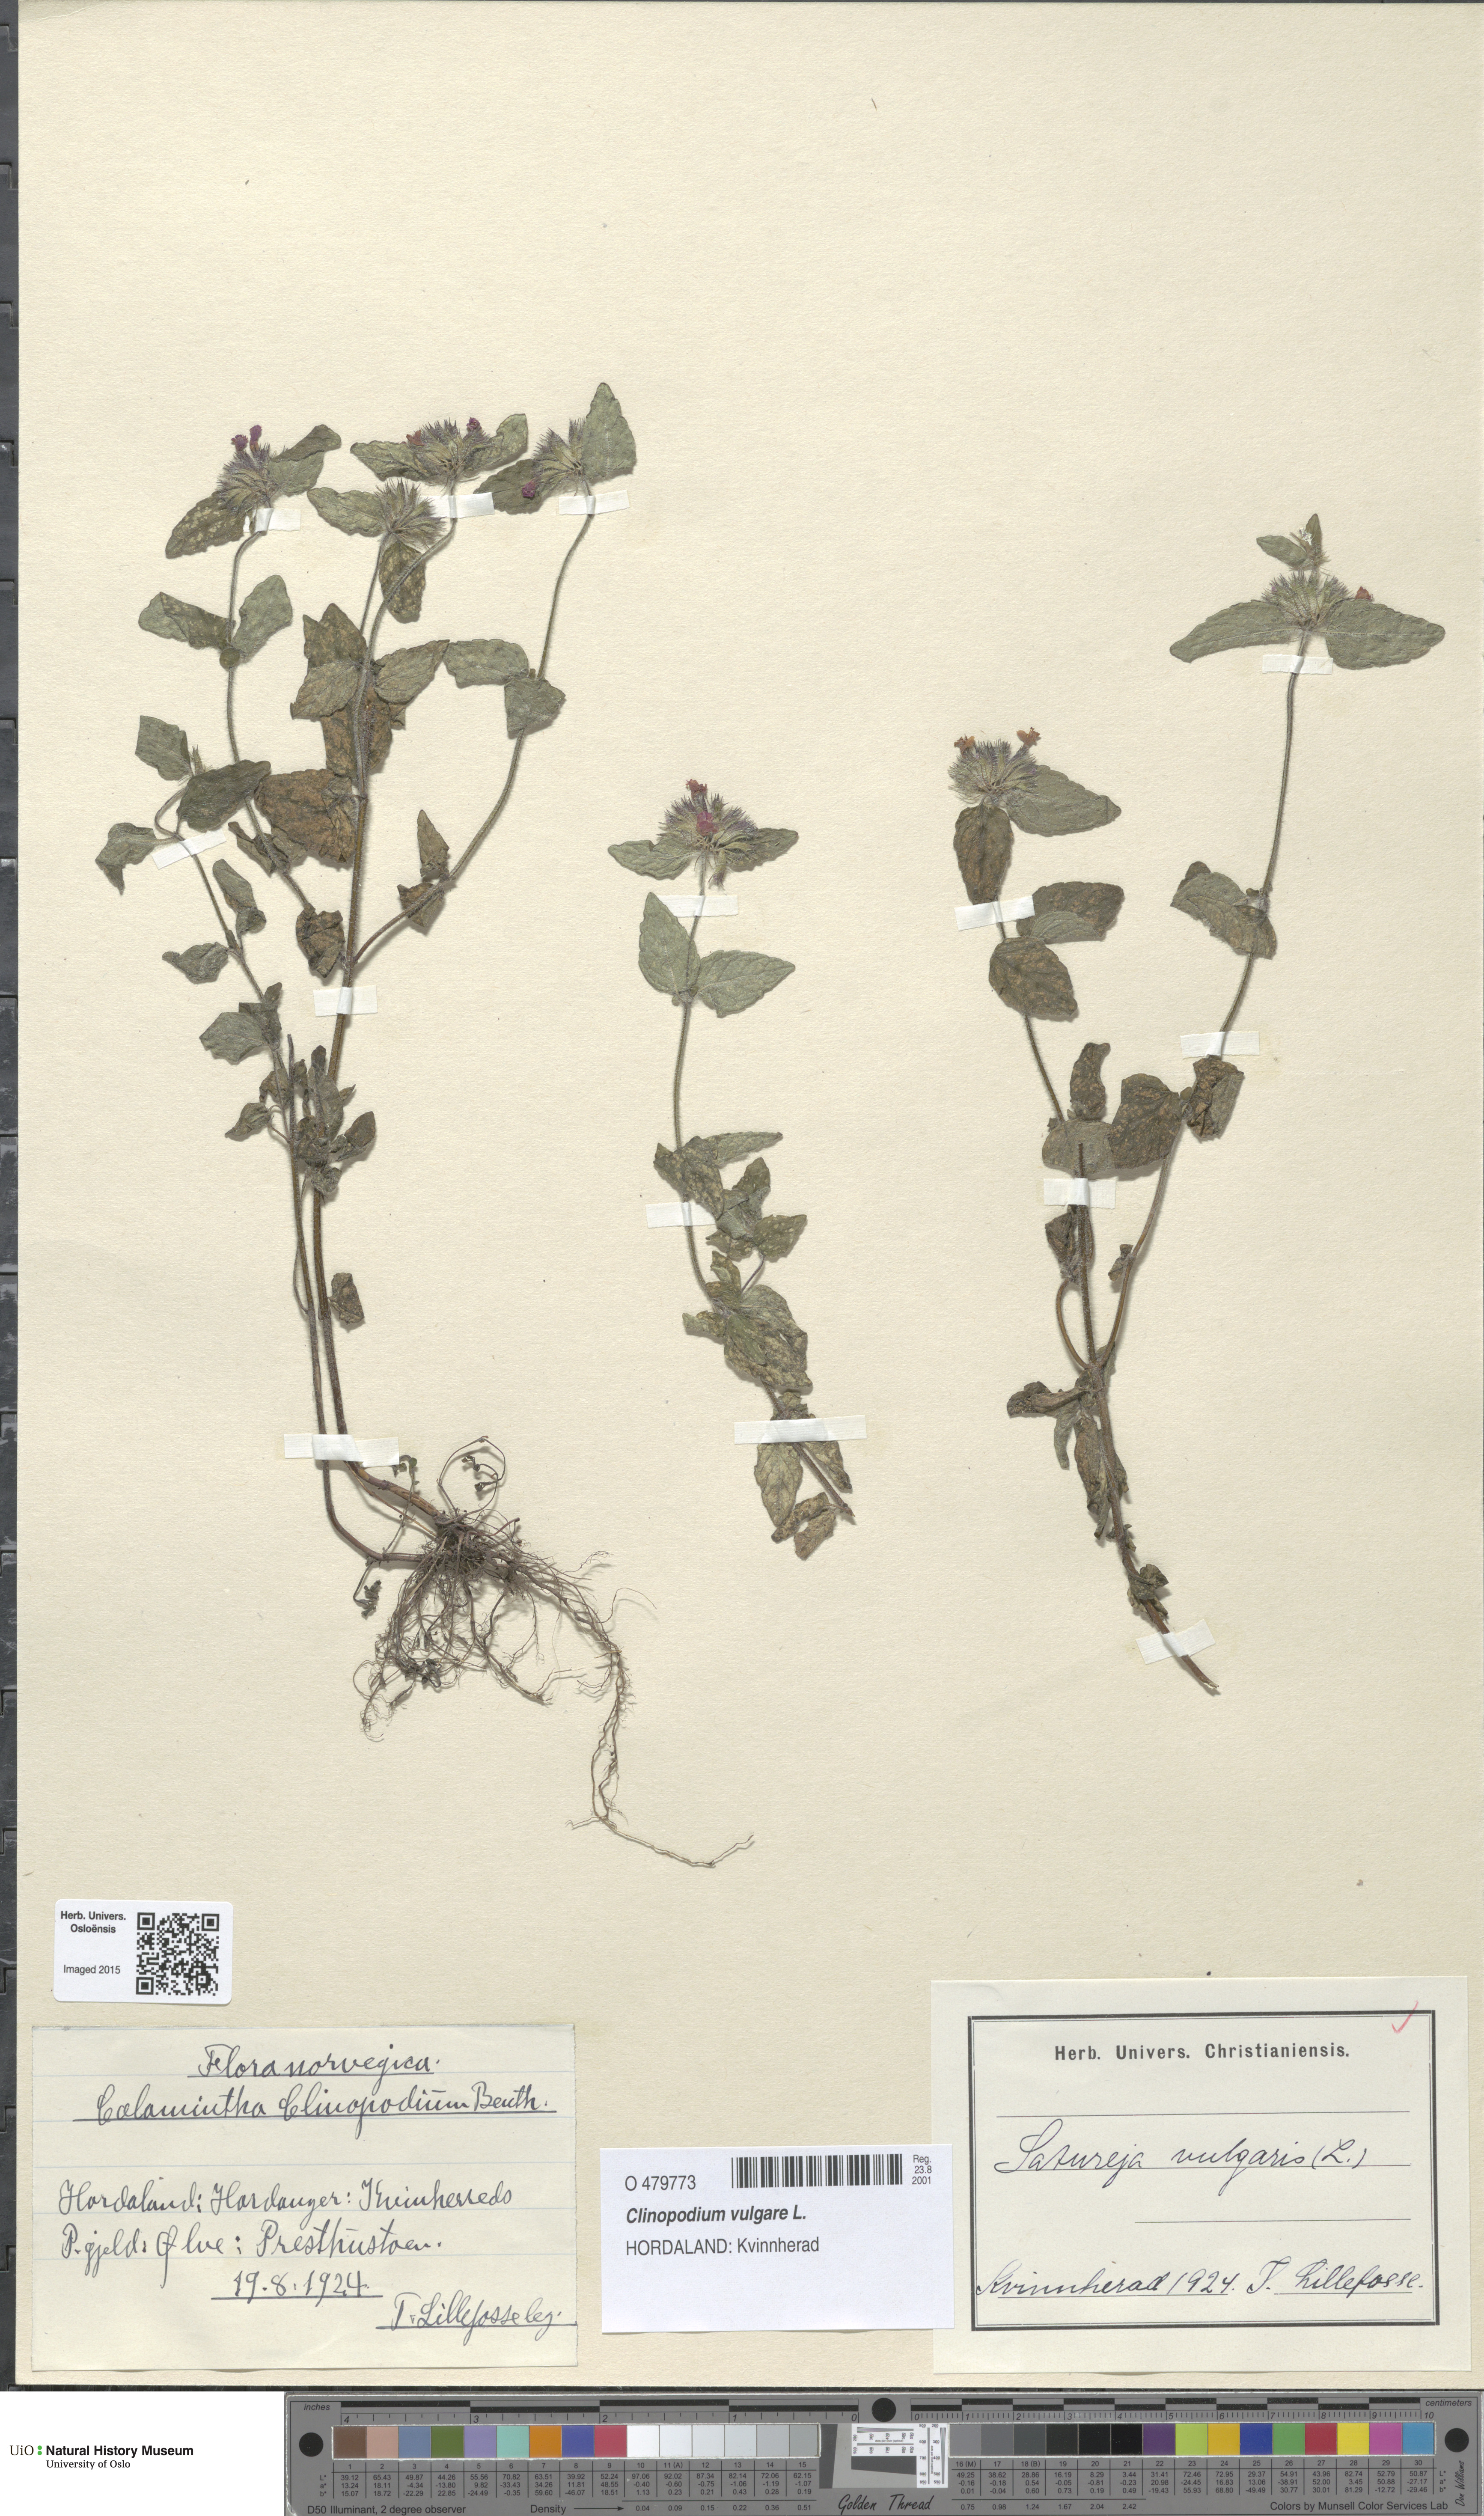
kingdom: Plantae
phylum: Tracheophyta
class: Magnoliopsida
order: Lamiales
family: Lamiaceae
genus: Clinopodium
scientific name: Clinopodium vulgare
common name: Wild basil
